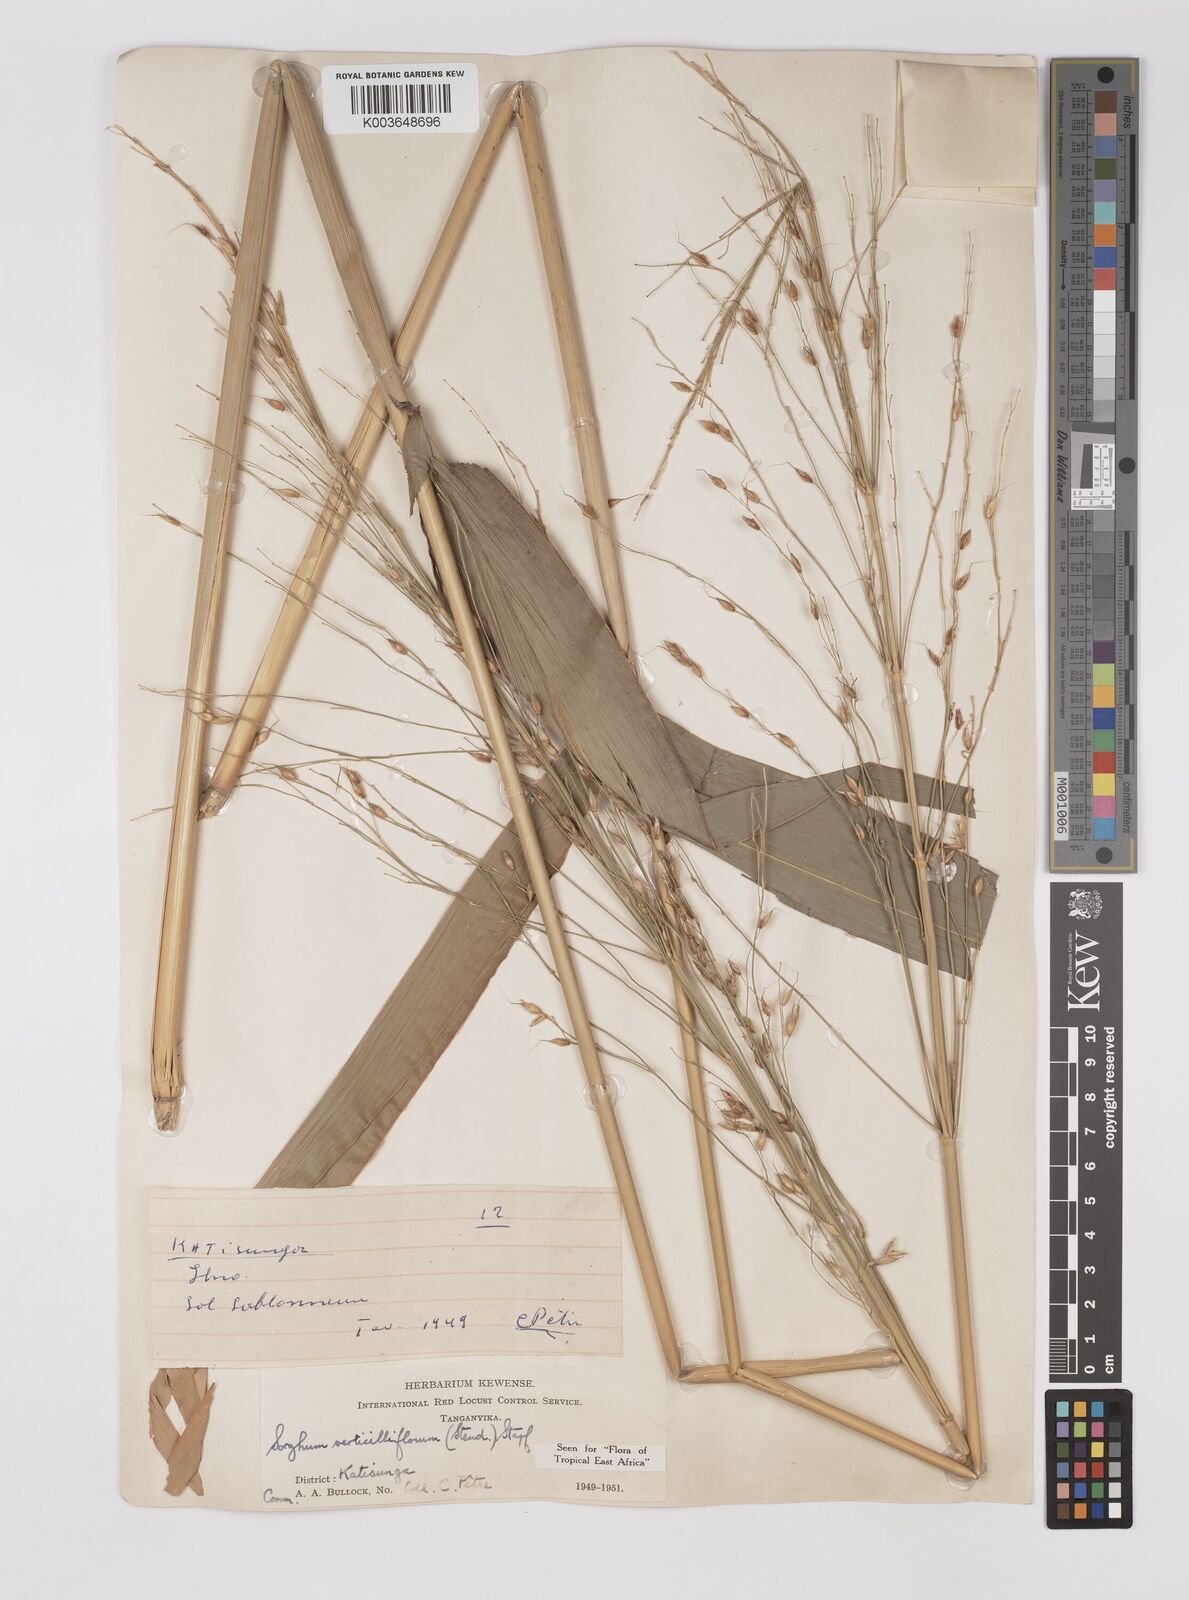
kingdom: Plantae
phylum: Tracheophyta
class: Liliopsida
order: Poales
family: Poaceae
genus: Sorghum
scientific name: Sorghum arundinaceum
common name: Sorghum
